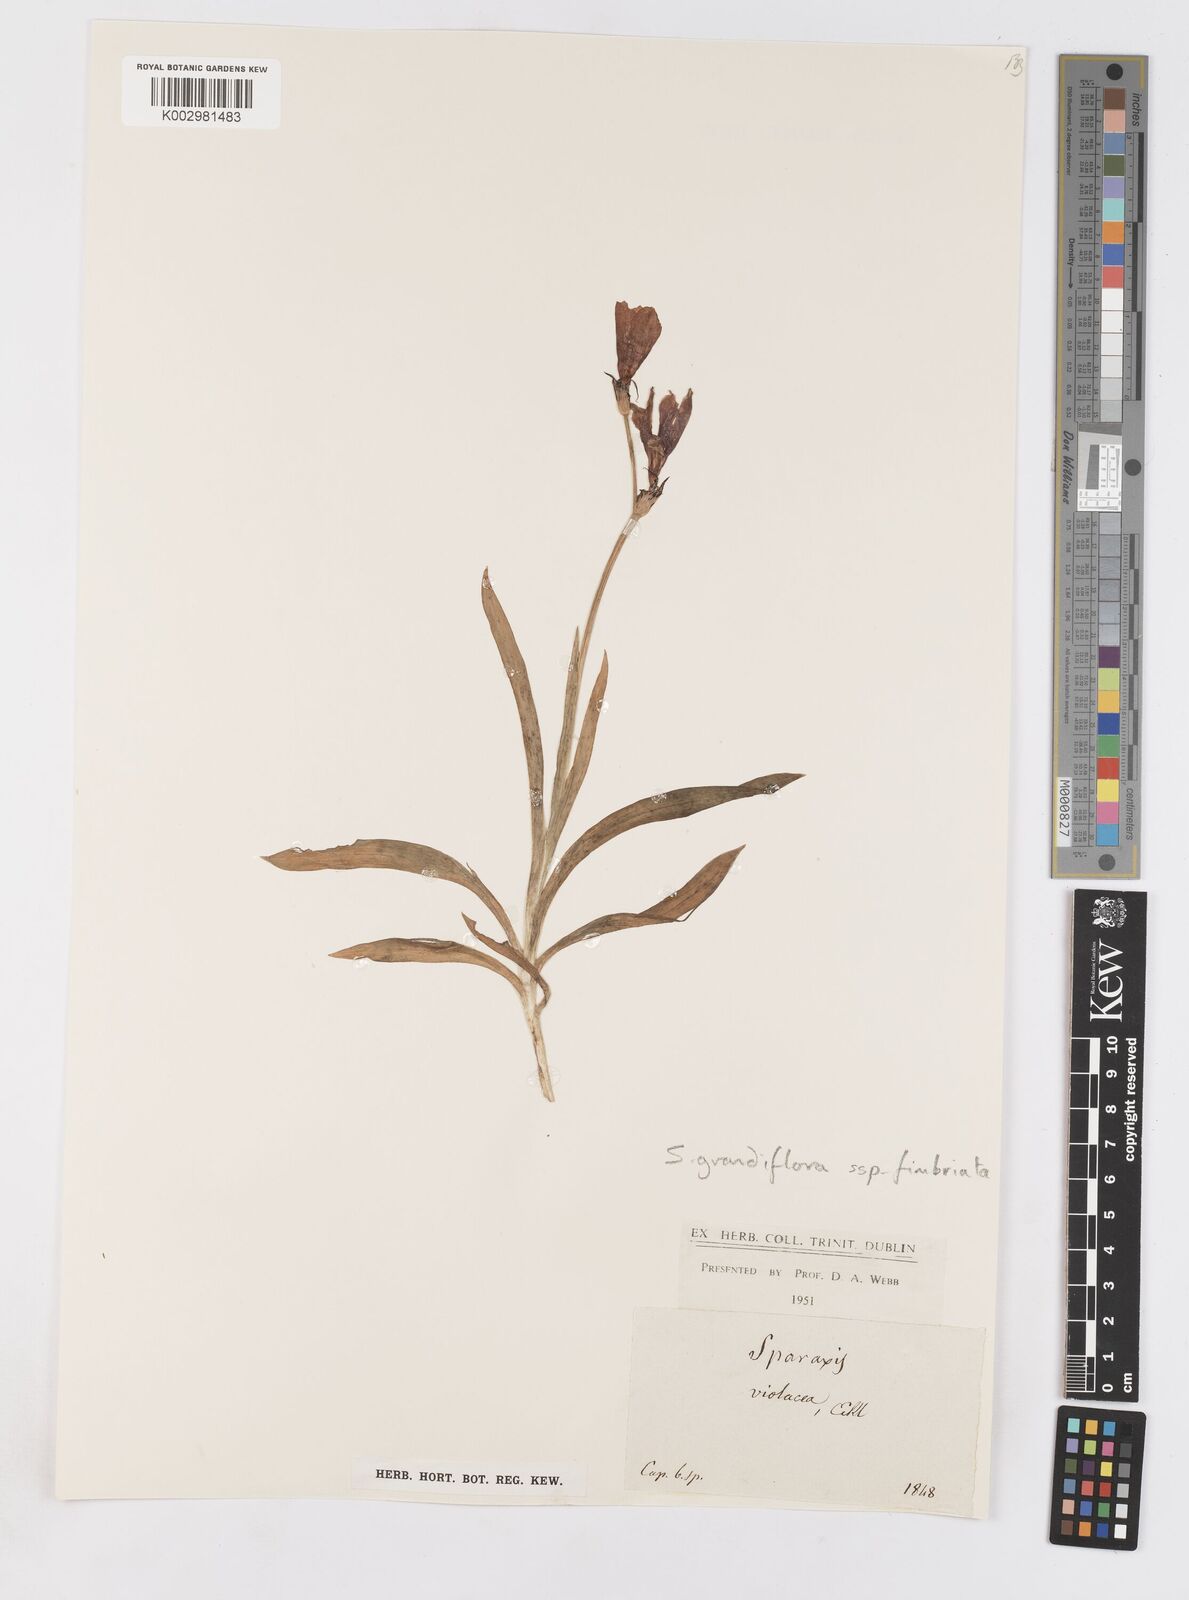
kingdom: Plantae
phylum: Tracheophyta
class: Liliopsida
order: Asparagales
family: Iridaceae
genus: Sparaxis
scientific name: Sparaxis grandiflora
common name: Plain harlequin-flower
